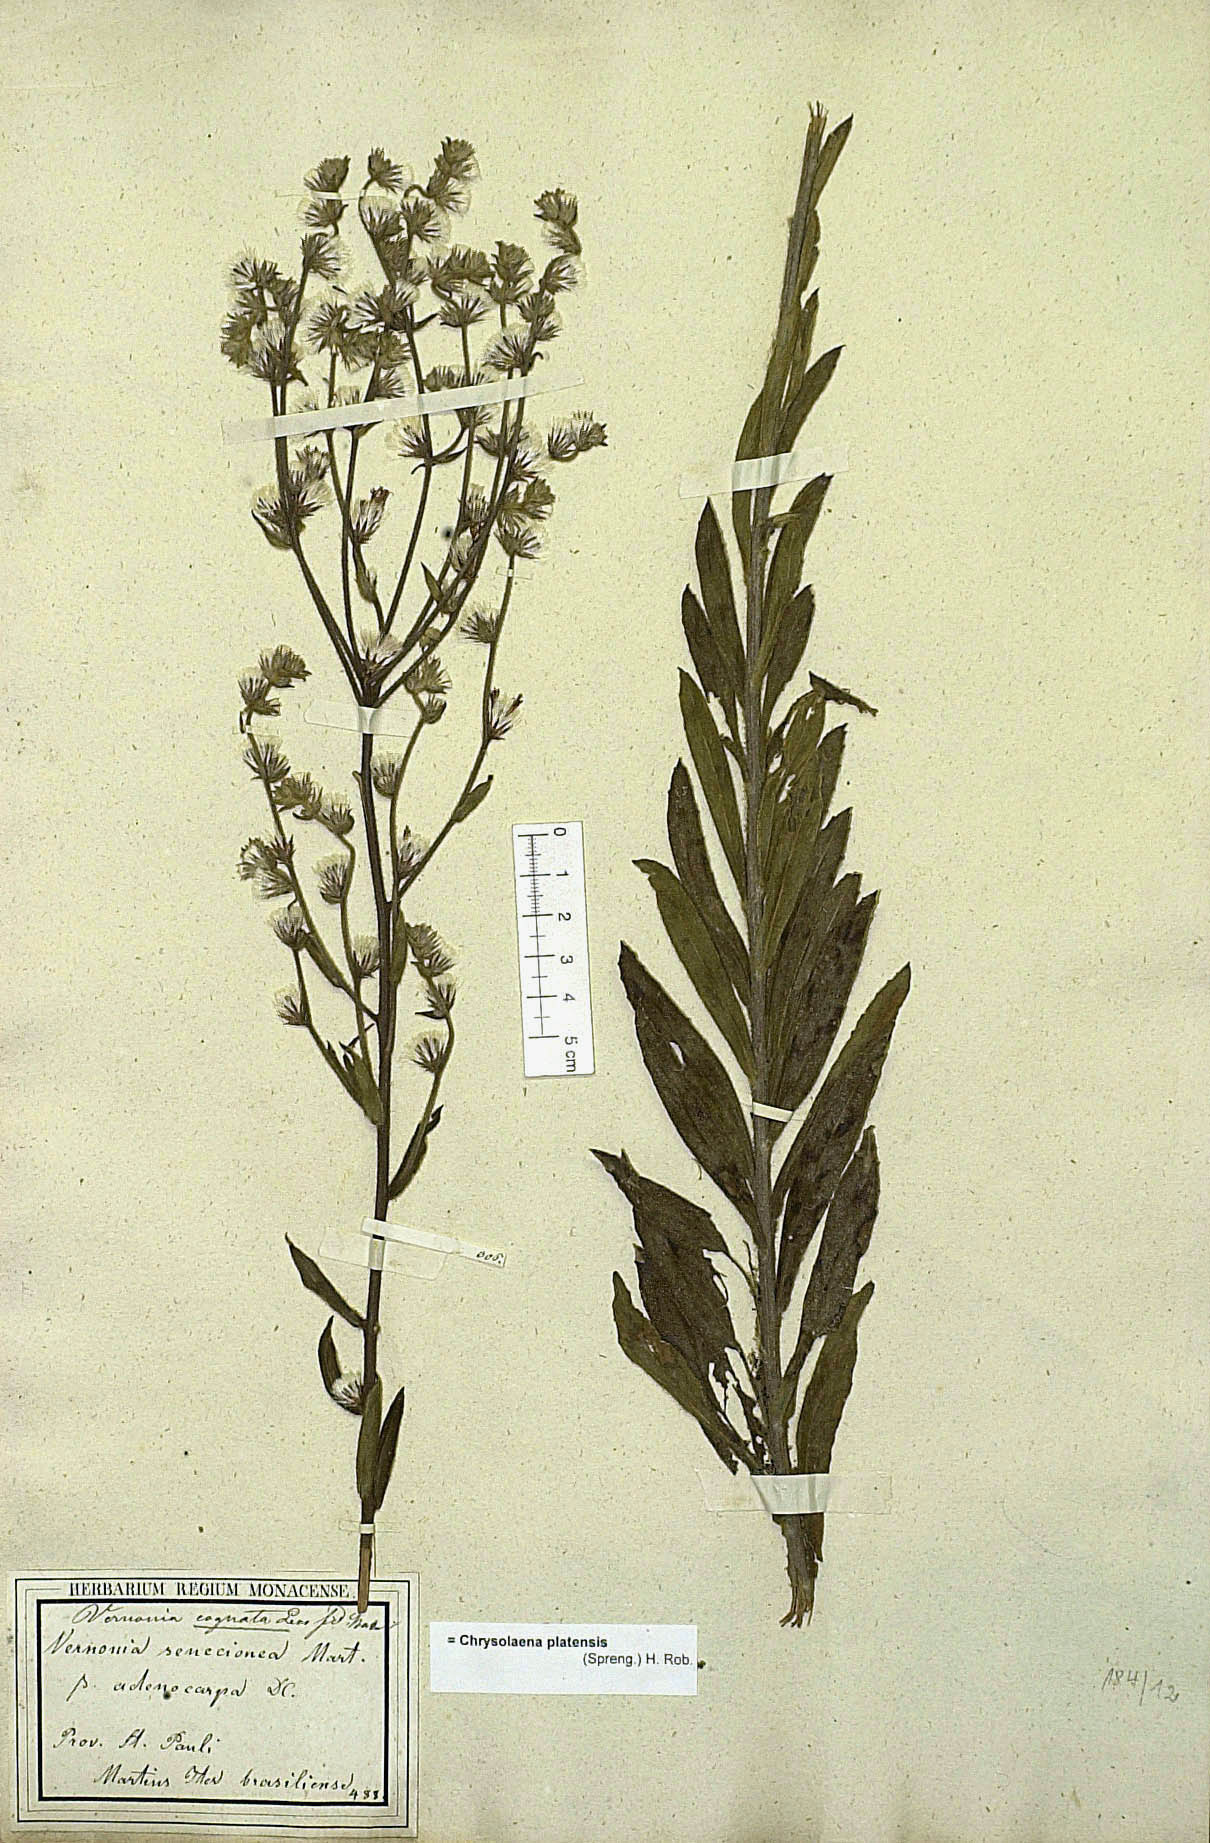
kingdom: Plantae
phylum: Tracheophyta
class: Magnoliopsida
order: Asterales
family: Asteraceae
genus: Chrysolaena
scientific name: Chrysolaena platensis
